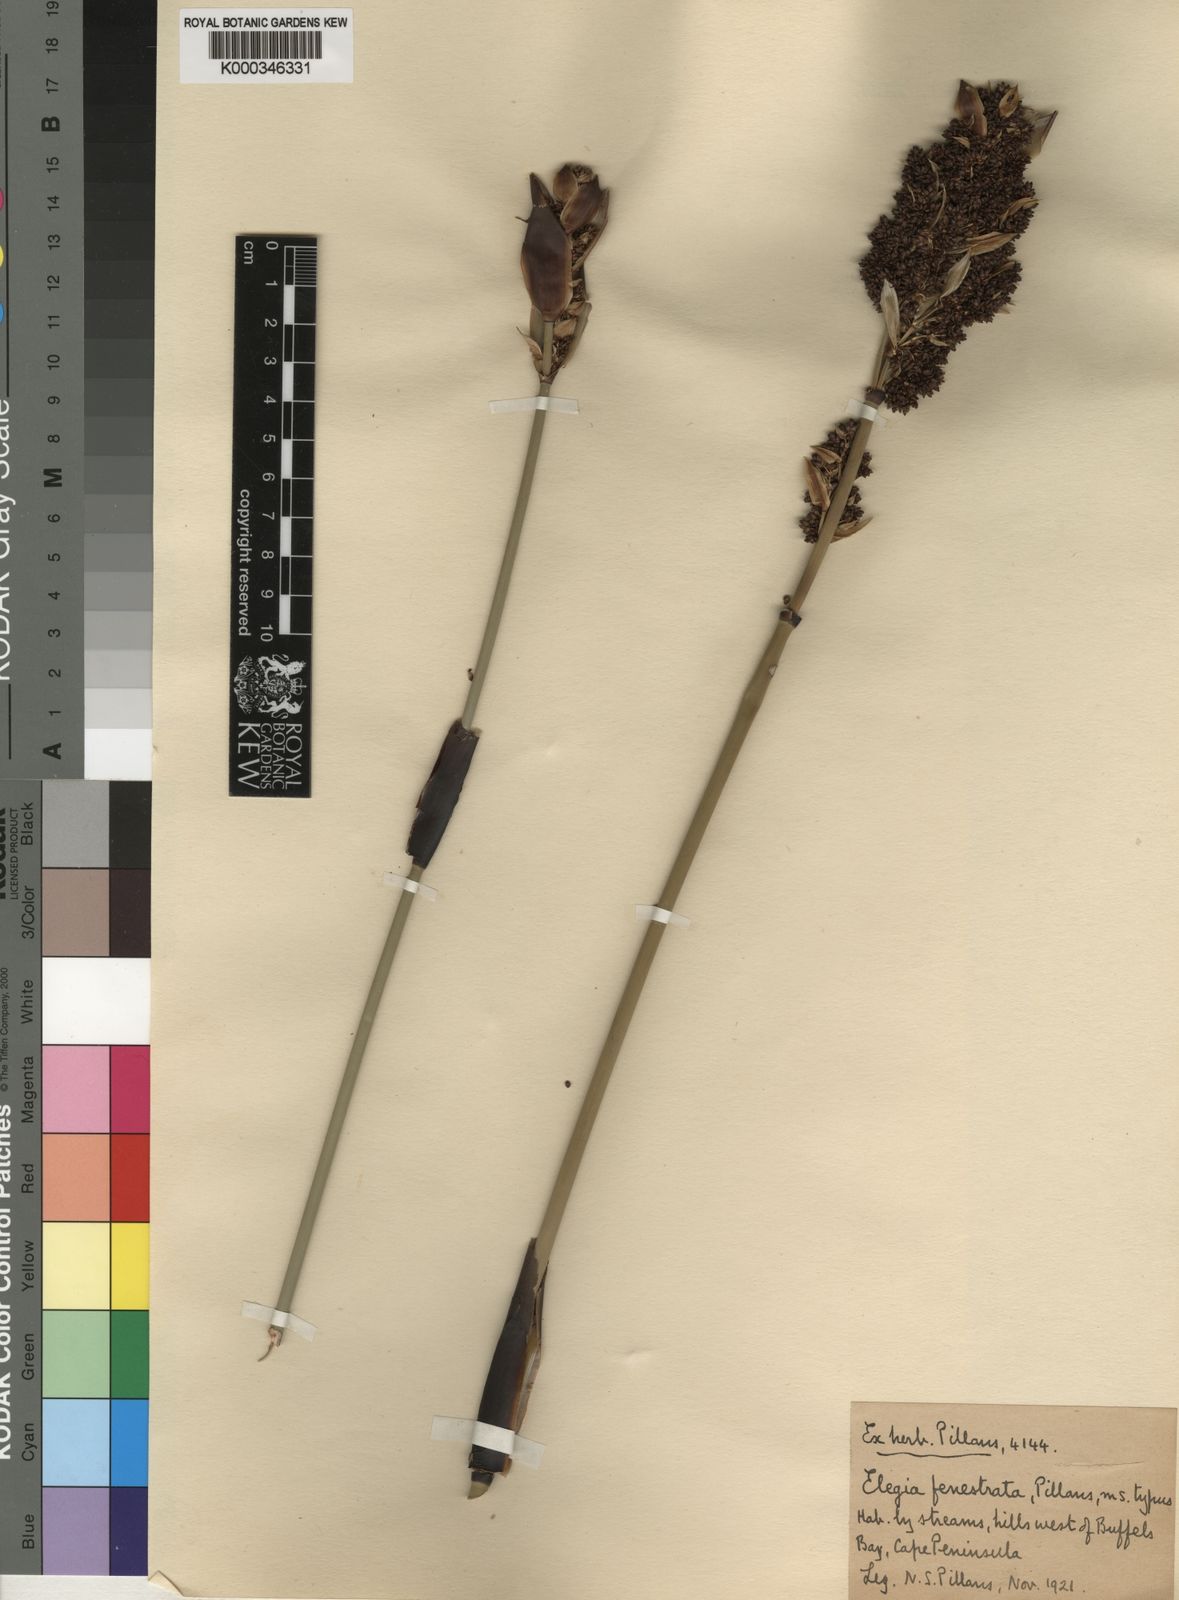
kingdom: Plantae
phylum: Tracheophyta
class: Liliopsida
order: Poales
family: Restionaceae
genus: Elegia
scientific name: Elegia fenestrata
